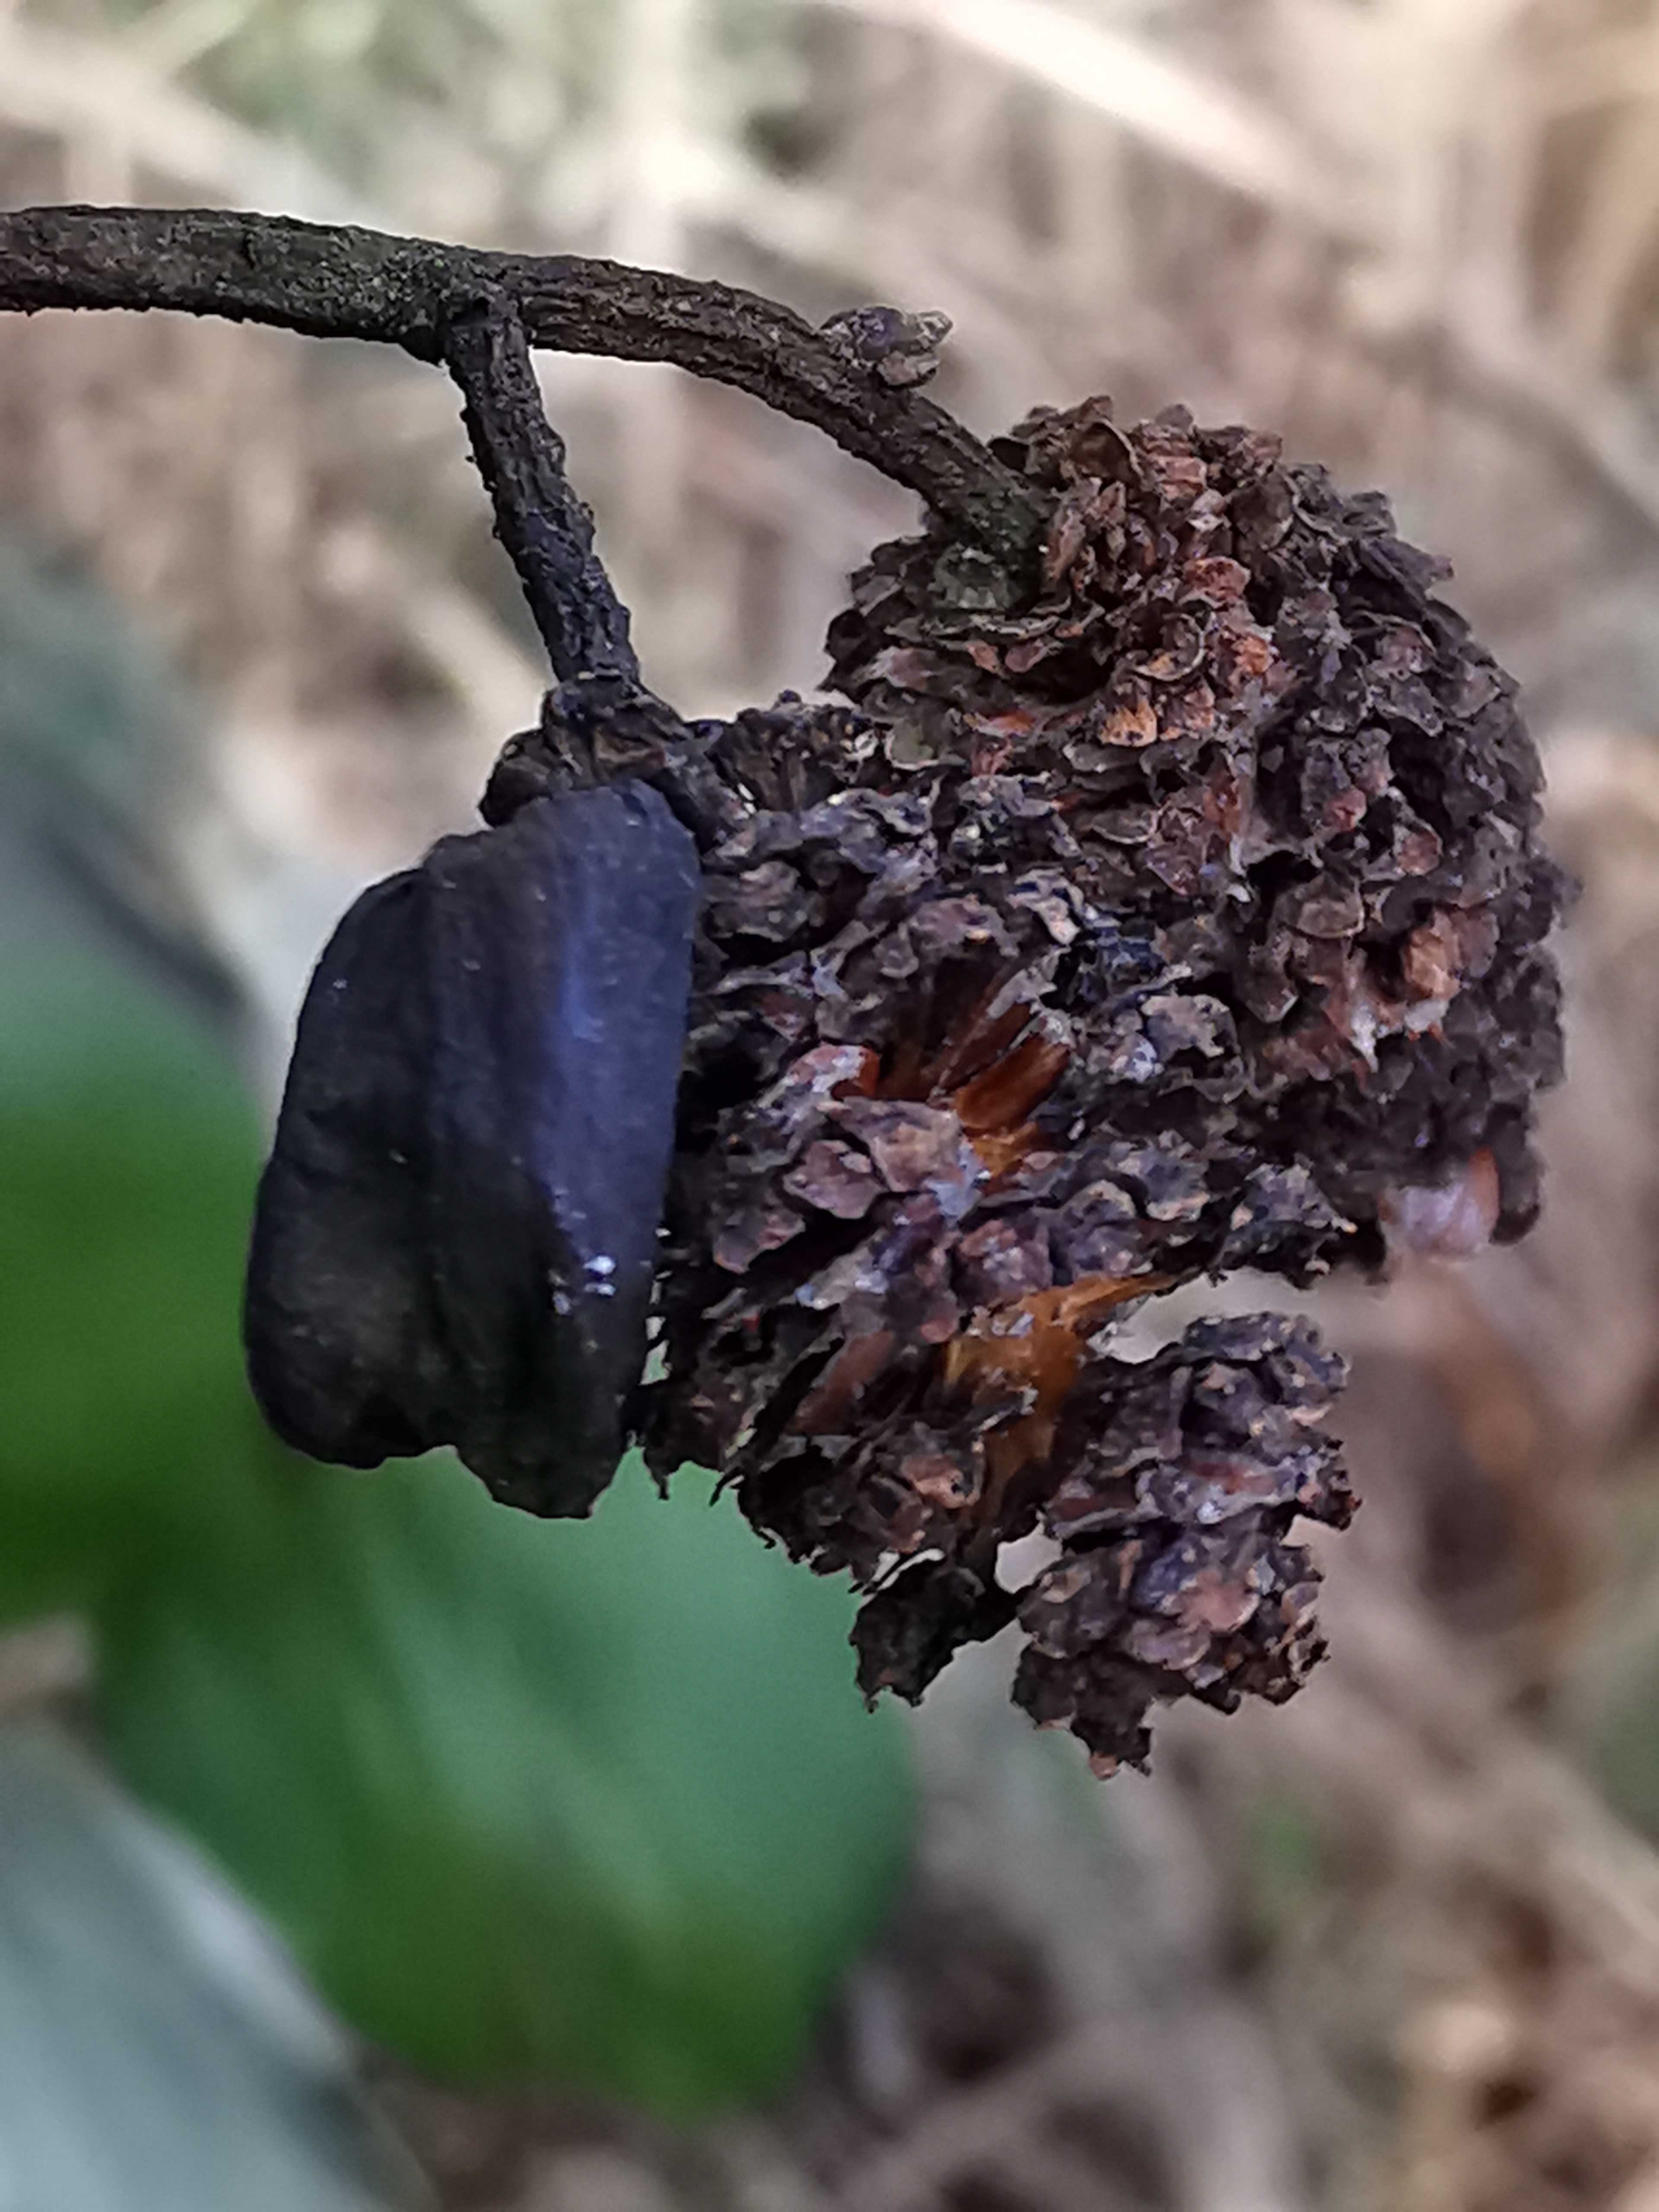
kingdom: Fungi
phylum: Ascomycota
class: Taphrinomycetes
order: Taphrinales
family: Taphrinaceae
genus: Taphrina
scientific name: Taphrina alni
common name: Alder tongue
